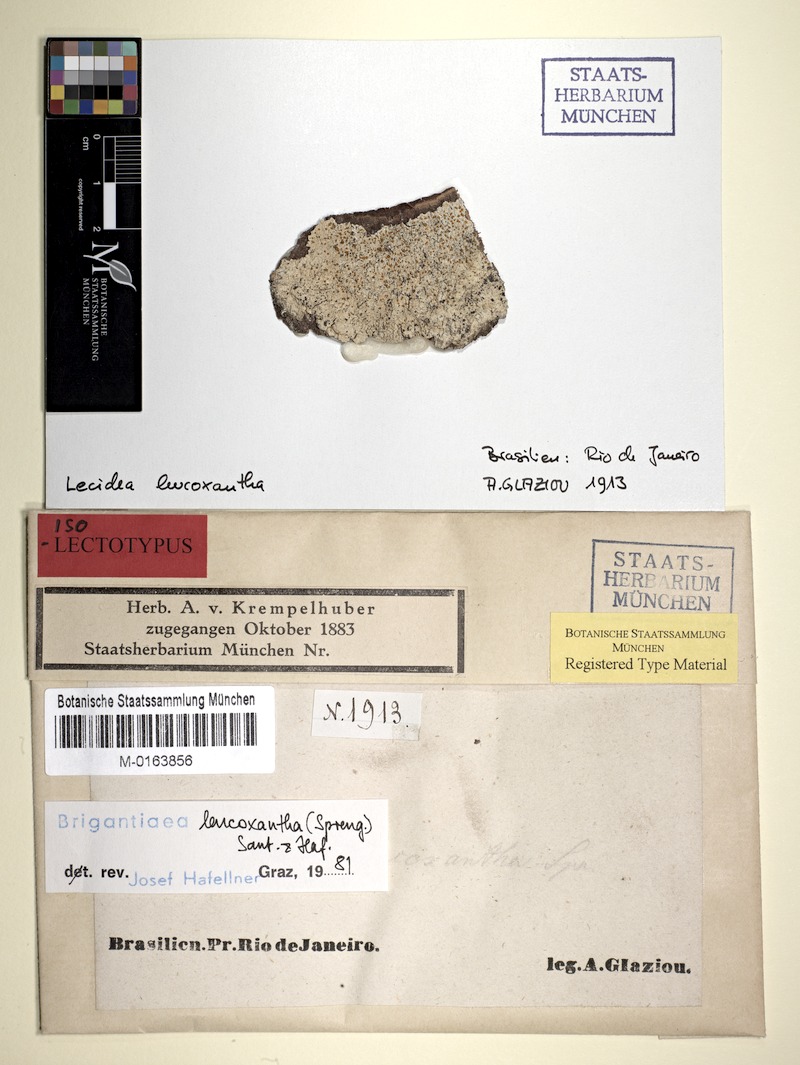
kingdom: Fungi
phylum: Ascomycota
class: Lecanoromycetes
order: Teloschistales
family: Brigantiaeaceae
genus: Brigantiaea
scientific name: Brigantiaea leucoxantha
